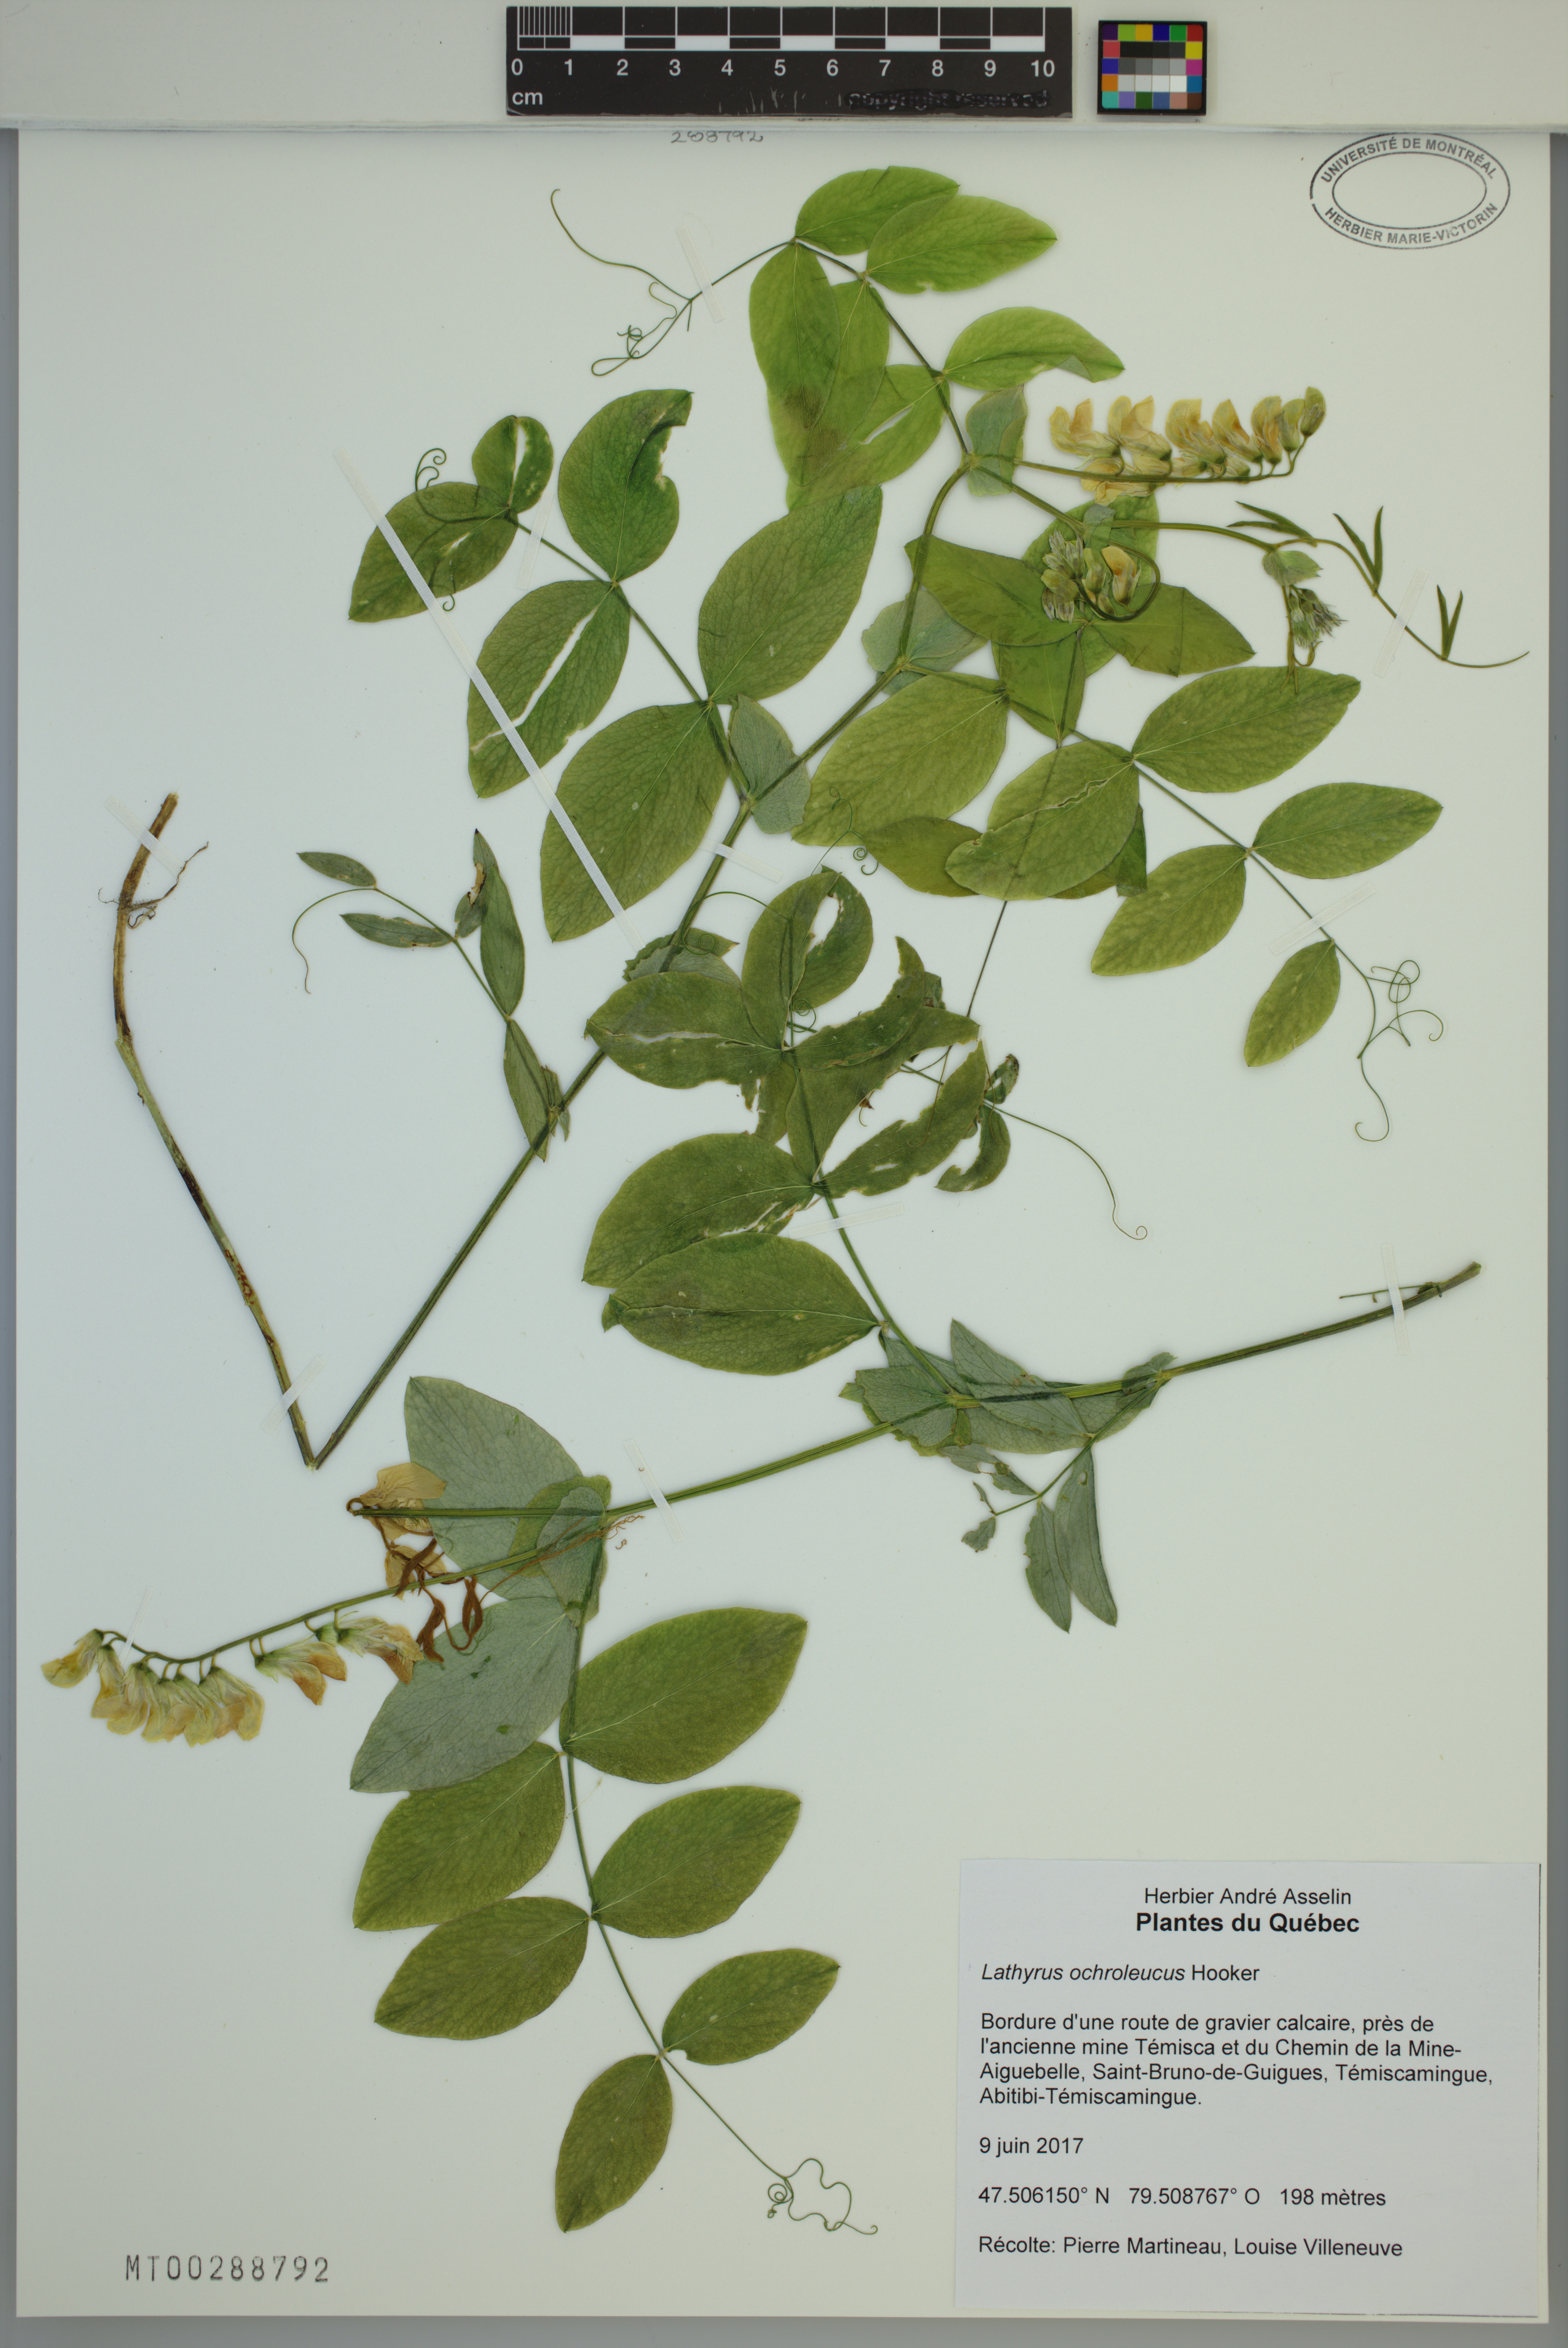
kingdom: Plantae
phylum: Tracheophyta
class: Magnoliopsida
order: Fabales
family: Fabaceae
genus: Lathyrus
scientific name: Lathyrus ochroleucus
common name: Pale vetchling
